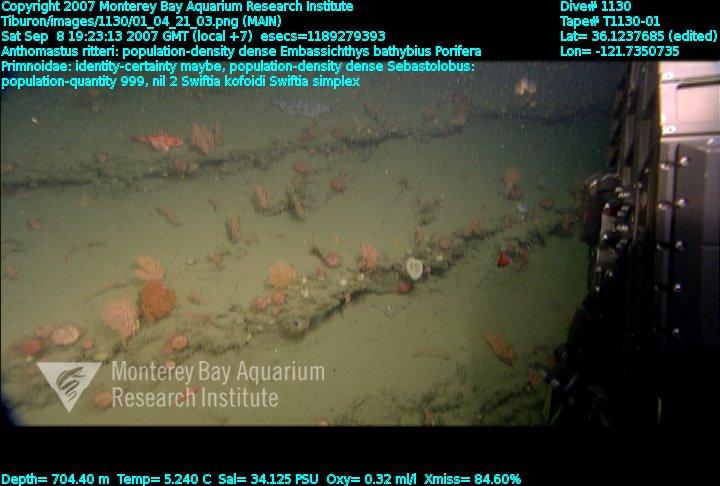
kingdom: Animalia
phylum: Porifera
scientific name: Porifera
